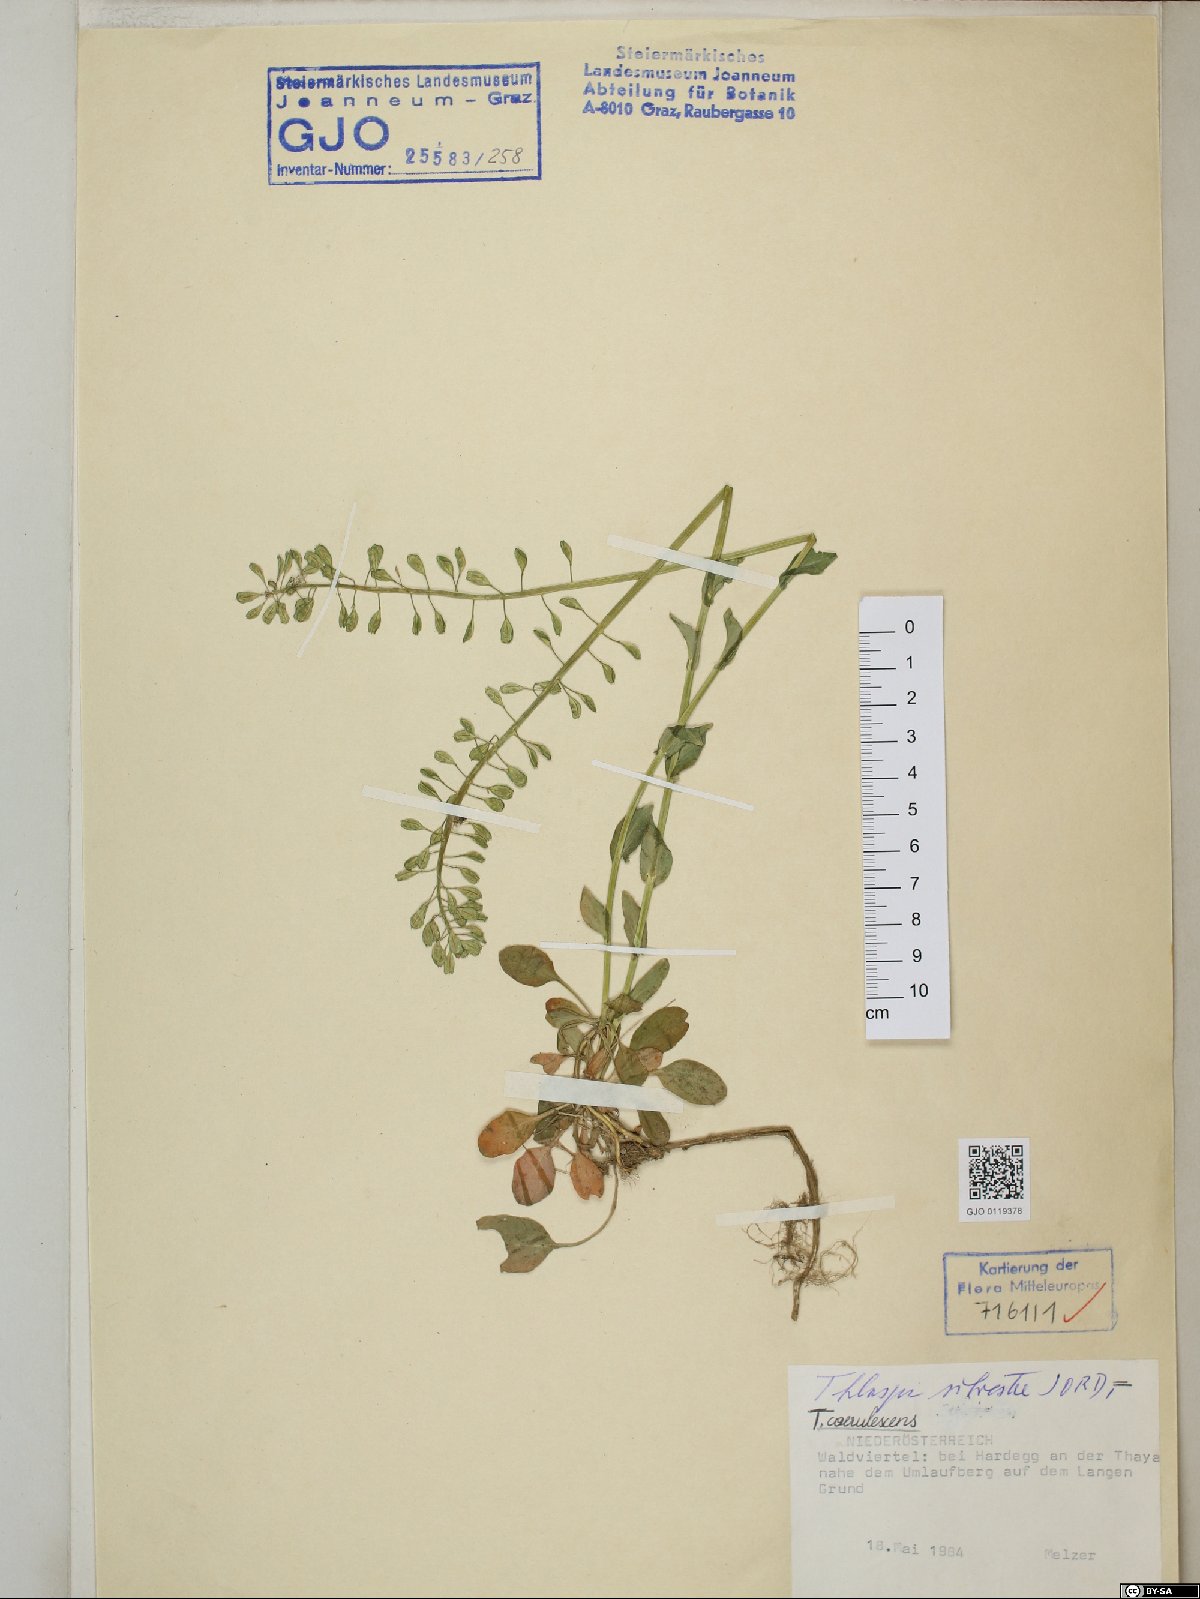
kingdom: Plantae
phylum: Tracheophyta
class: Magnoliopsida
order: Brassicales
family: Brassicaceae
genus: Noccaea
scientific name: Noccaea caerulescens
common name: Alpine pennycress
